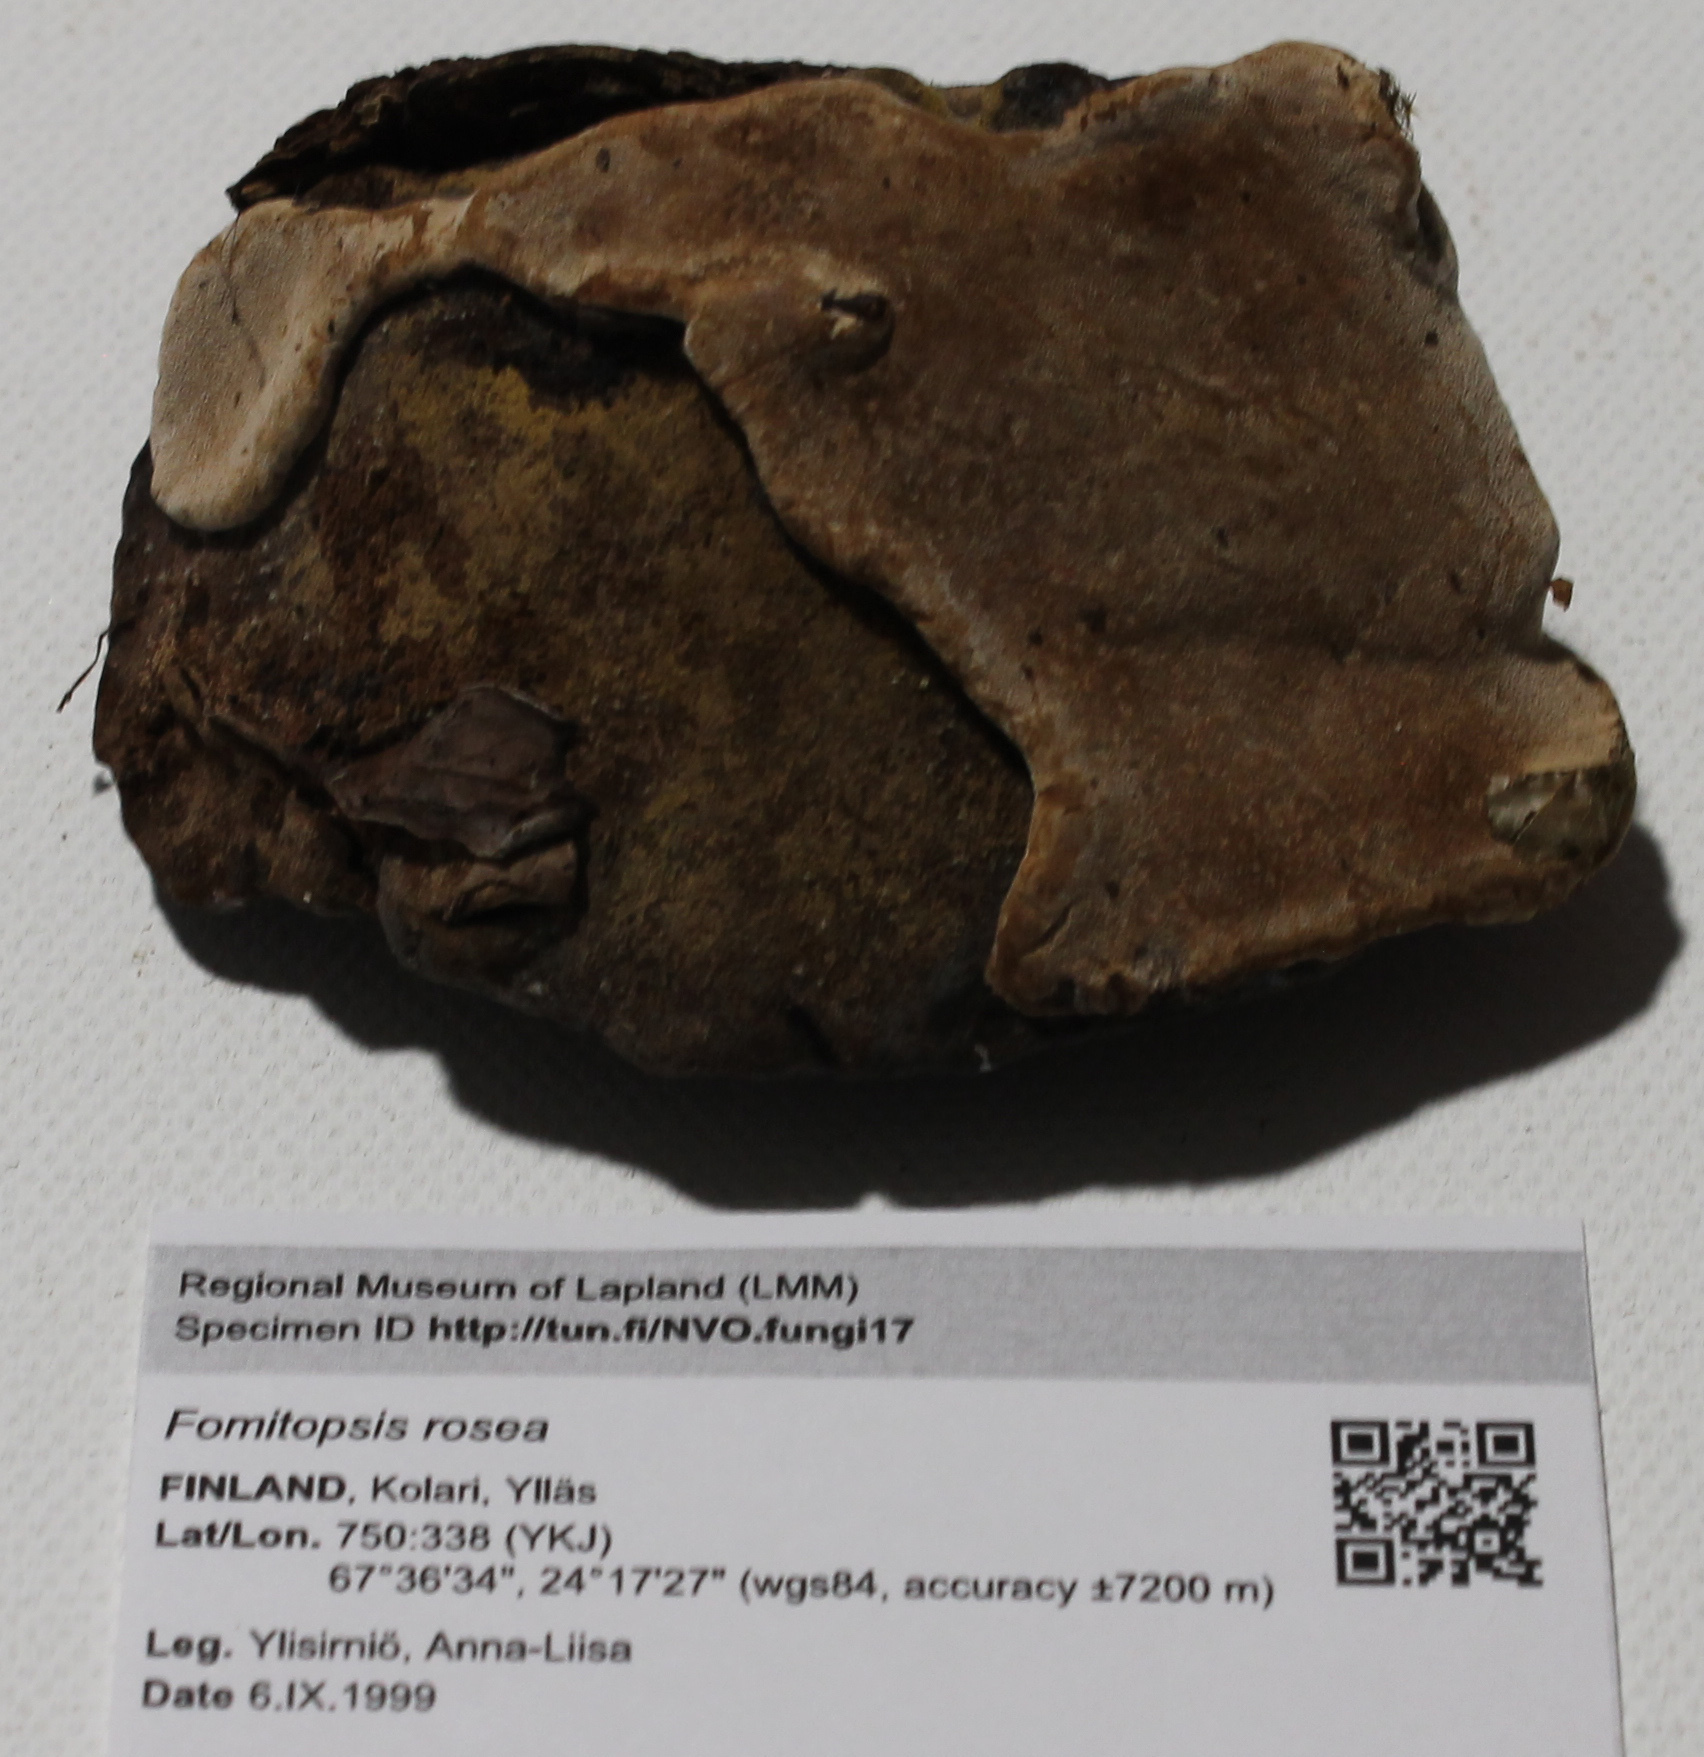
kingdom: Fungi
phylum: Basidiomycota
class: Agaricomycetes
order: Polyporales
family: Fomitopsidaceae
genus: Rhodofomes
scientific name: Rhodofomes roseus
